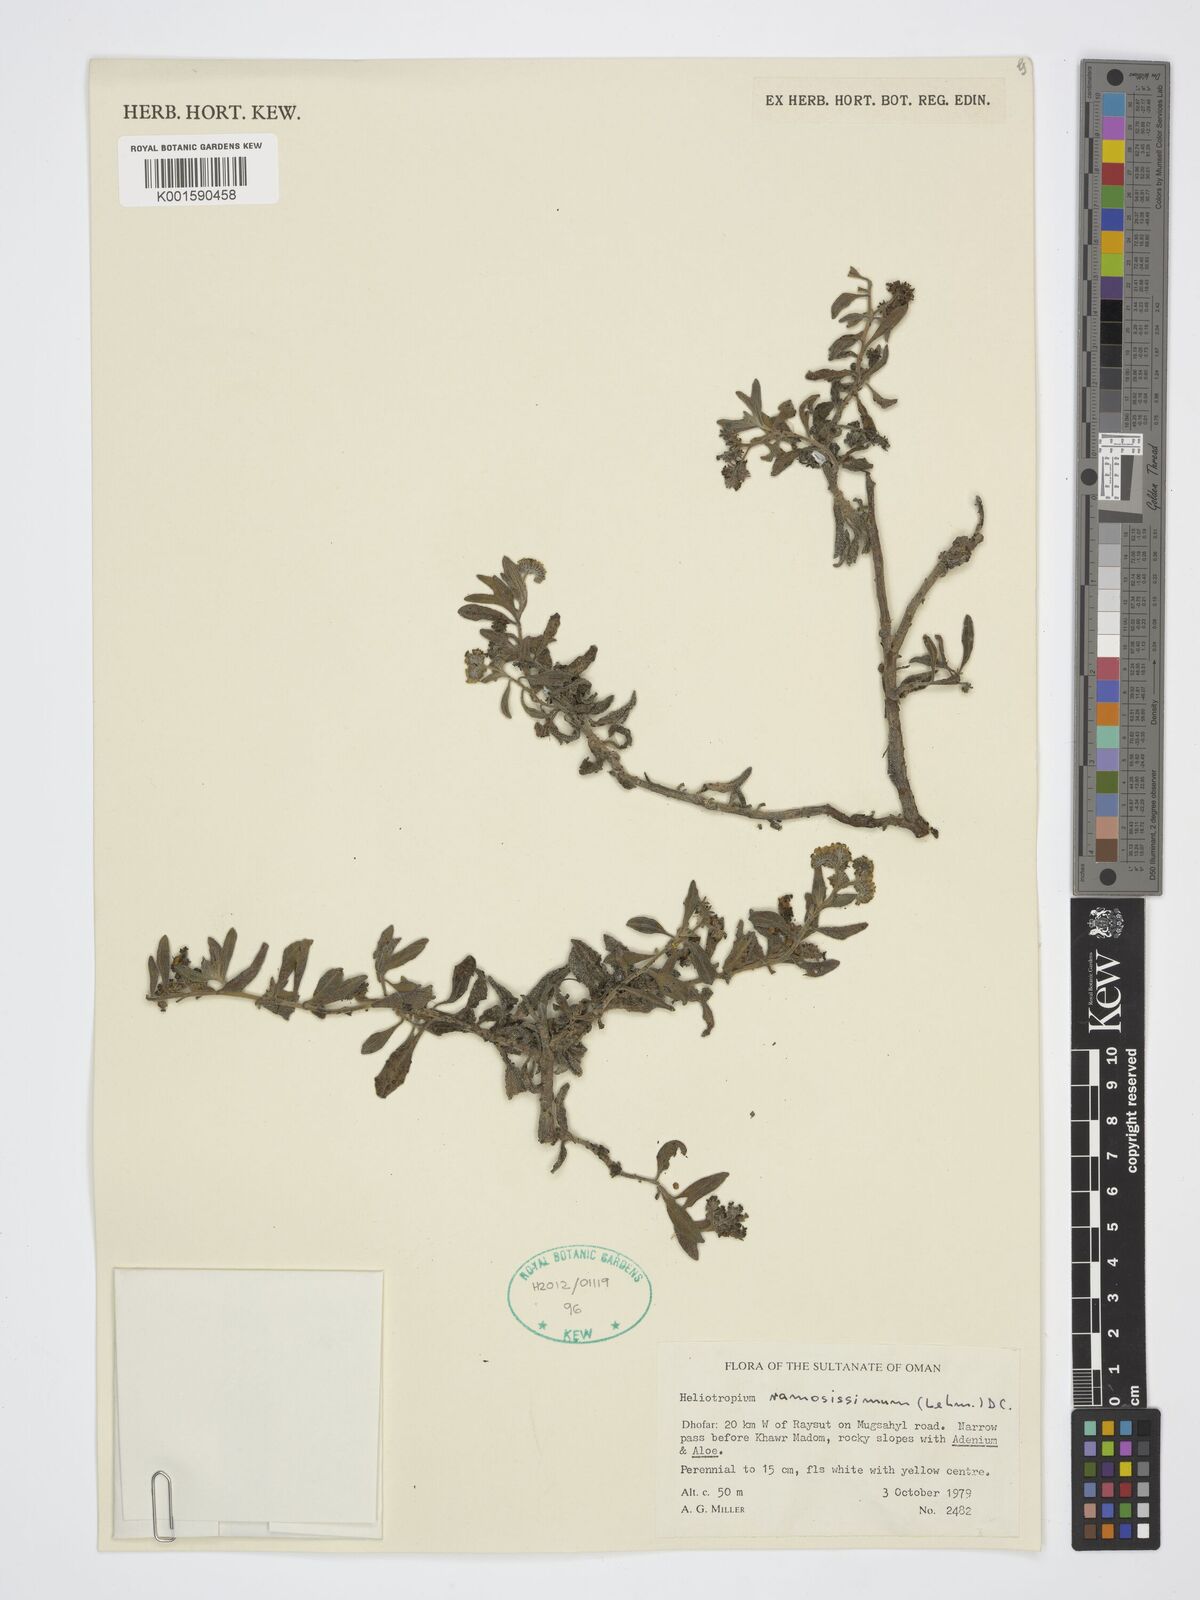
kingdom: Plantae
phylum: Tracheophyta
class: Magnoliopsida
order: Boraginales
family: Heliotropiaceae
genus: Heliotropium
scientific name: Heliotropium ramosissimum
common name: Wavy heliotrope
